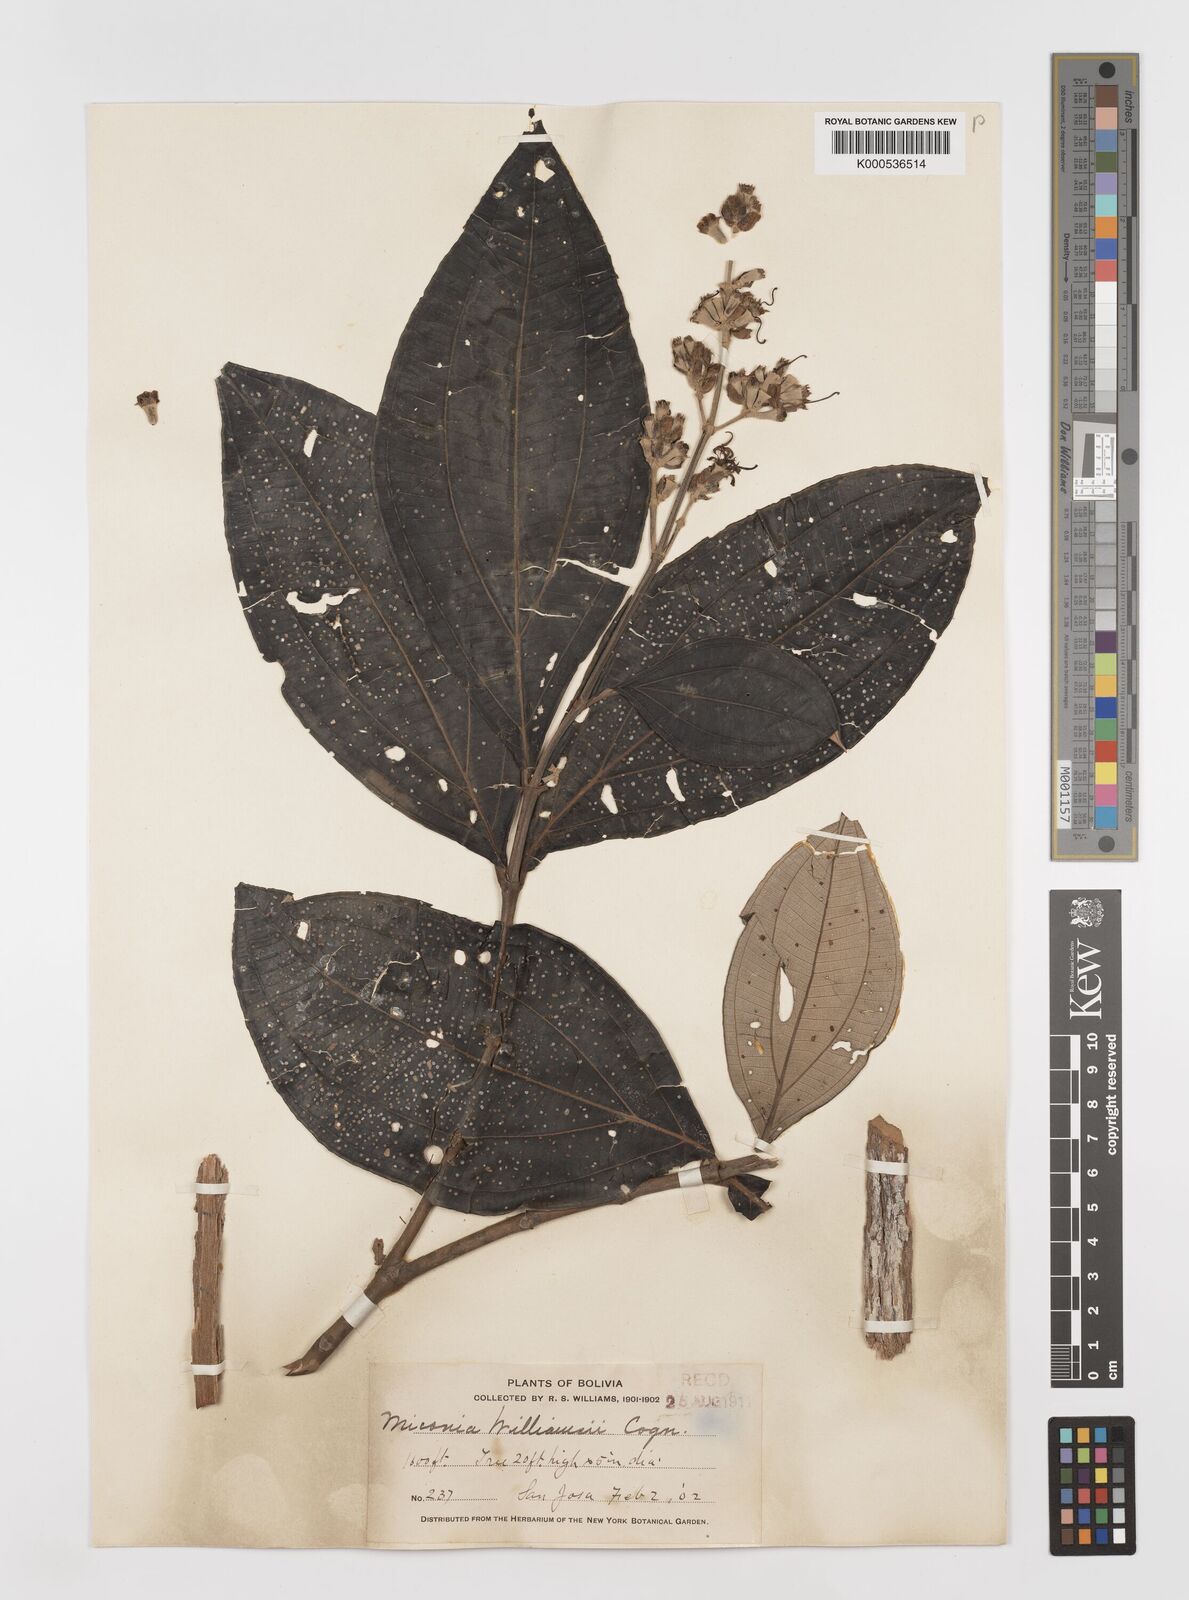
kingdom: Plantae
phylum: Tracheophyta
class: Magnoliopsida
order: Myrtales
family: Melastomataceae
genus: Miconia
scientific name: Miconia
